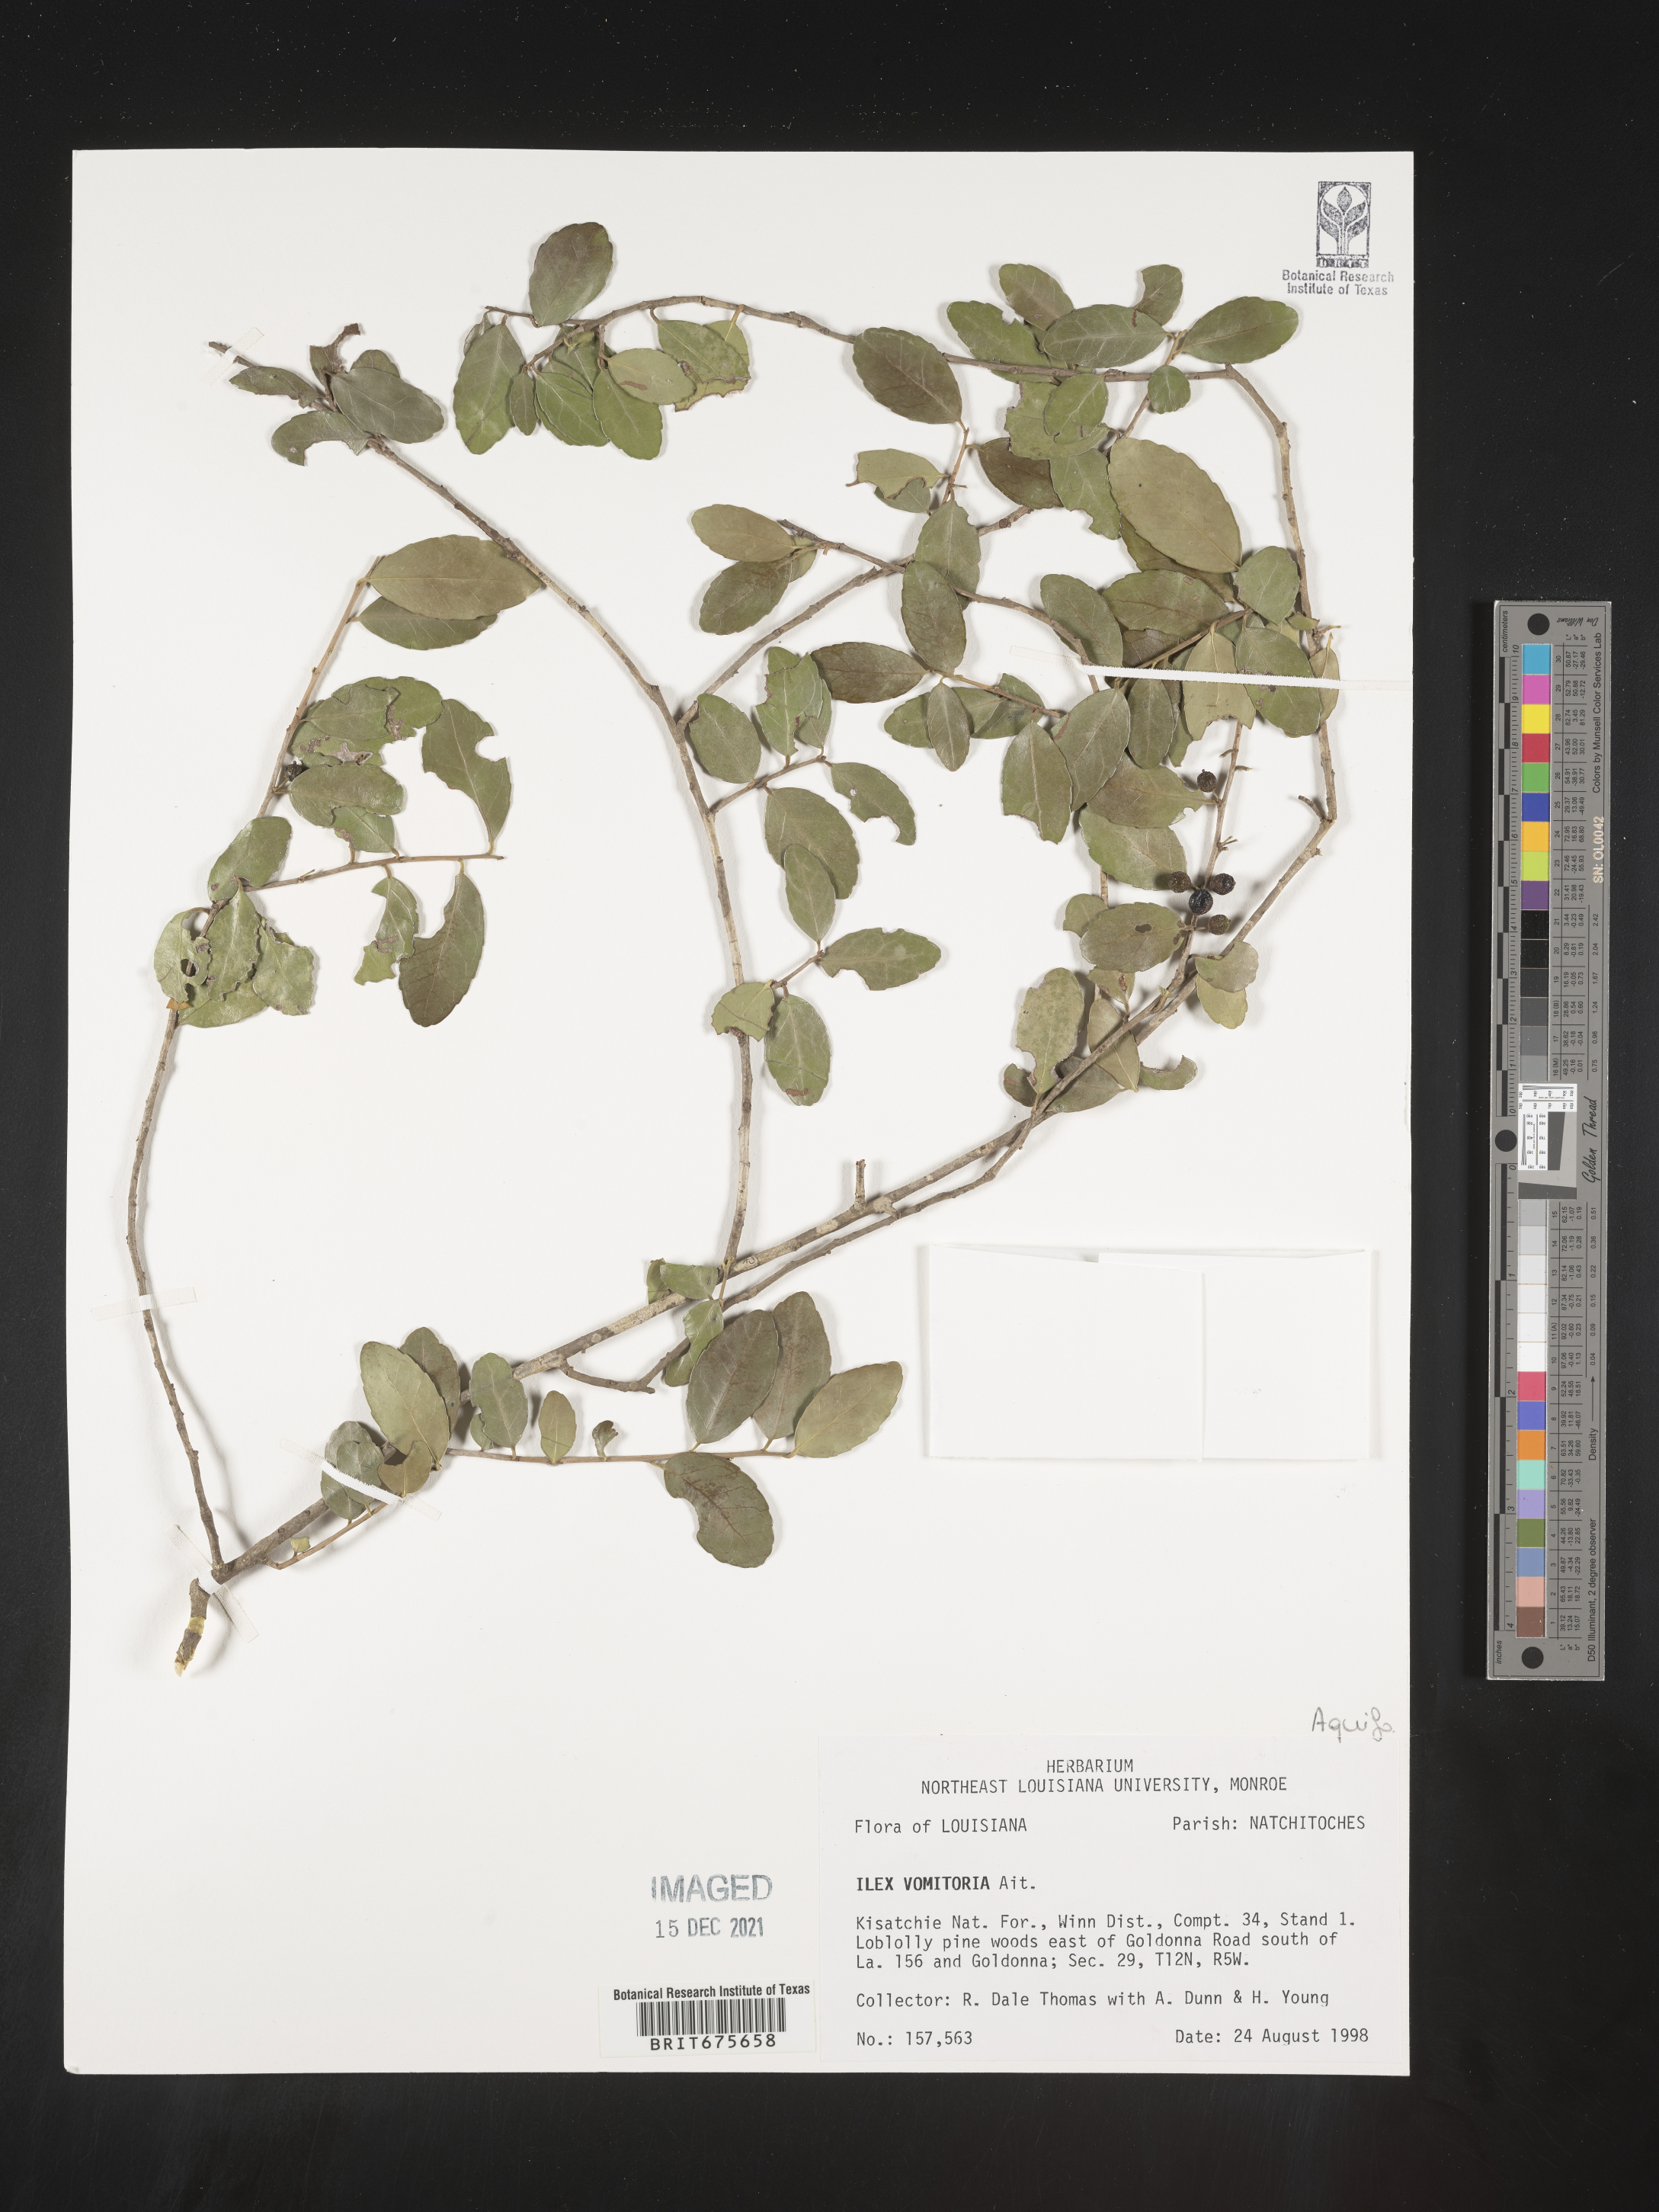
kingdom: Plantae
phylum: Tracheophyta
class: Magnoliopsida
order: Aquifoliales
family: Aquifoliaceae
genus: Ilex
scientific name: Ilex vomitoria
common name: Yaupon holly
